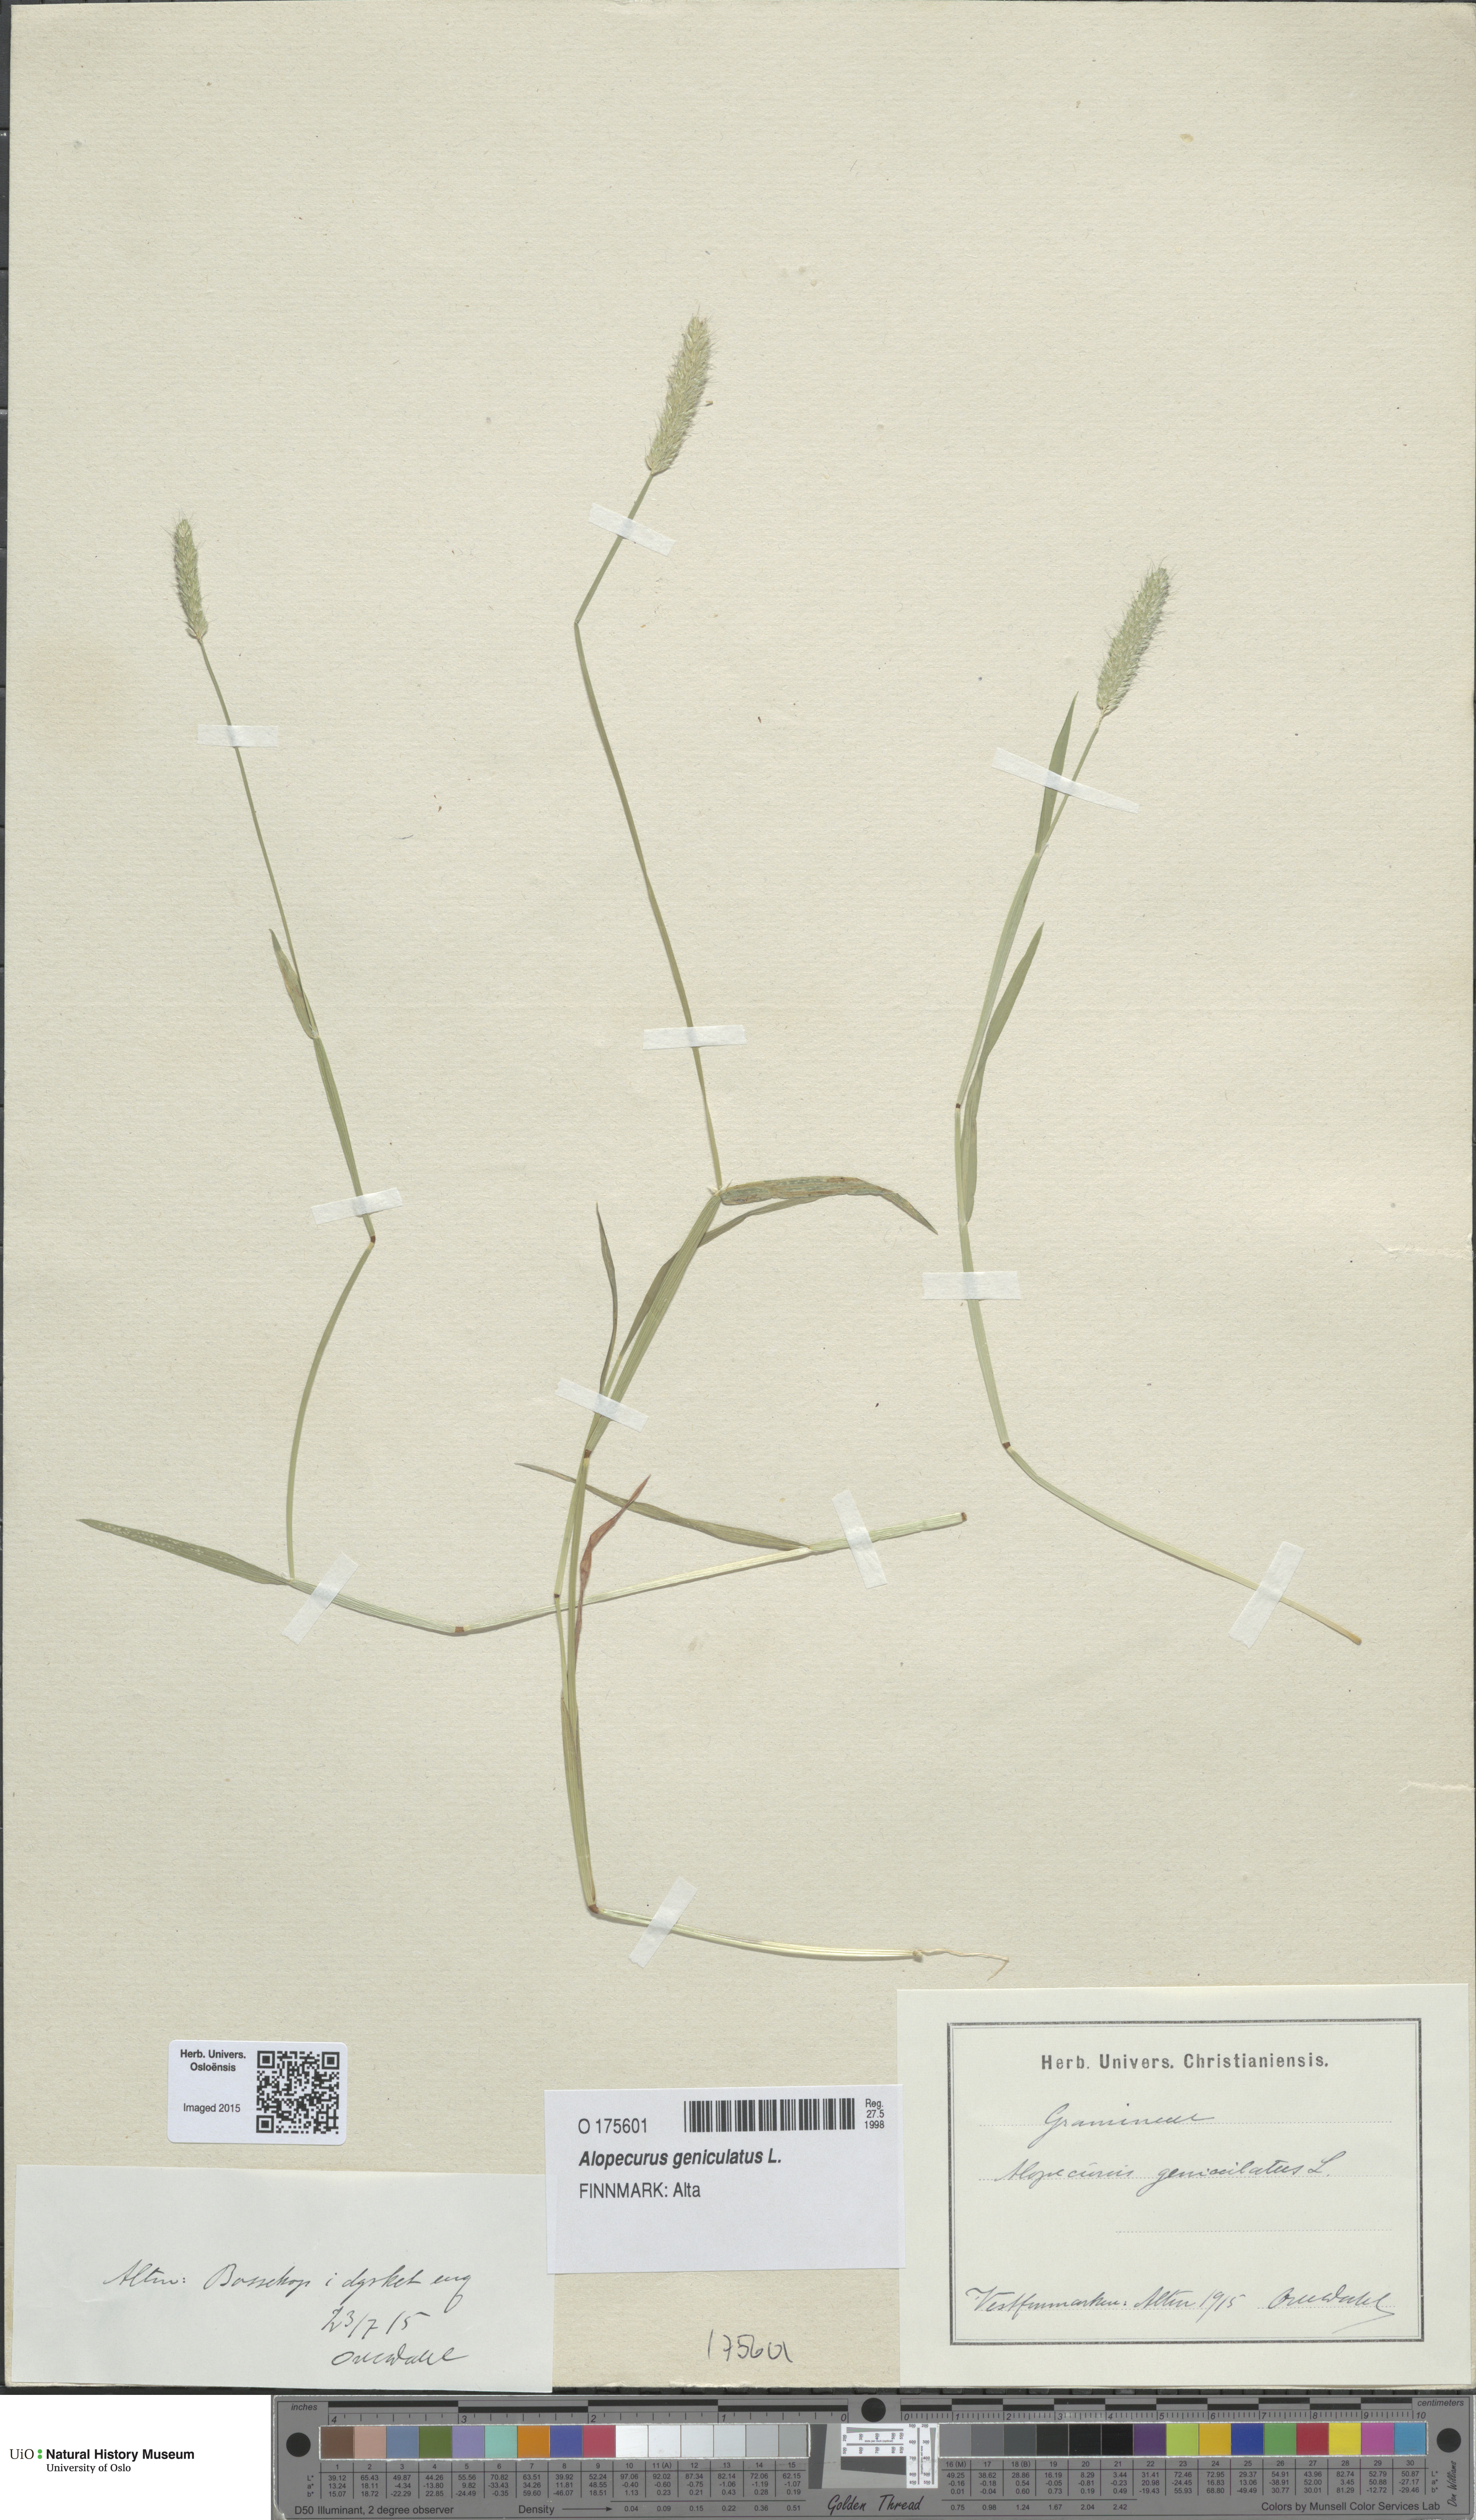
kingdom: Plantae
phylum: Tracheophyta
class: Liliopsida
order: Poales
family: Poaceae
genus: Alopecurus
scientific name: Alopecurus geniculatus
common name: Water foxtail
